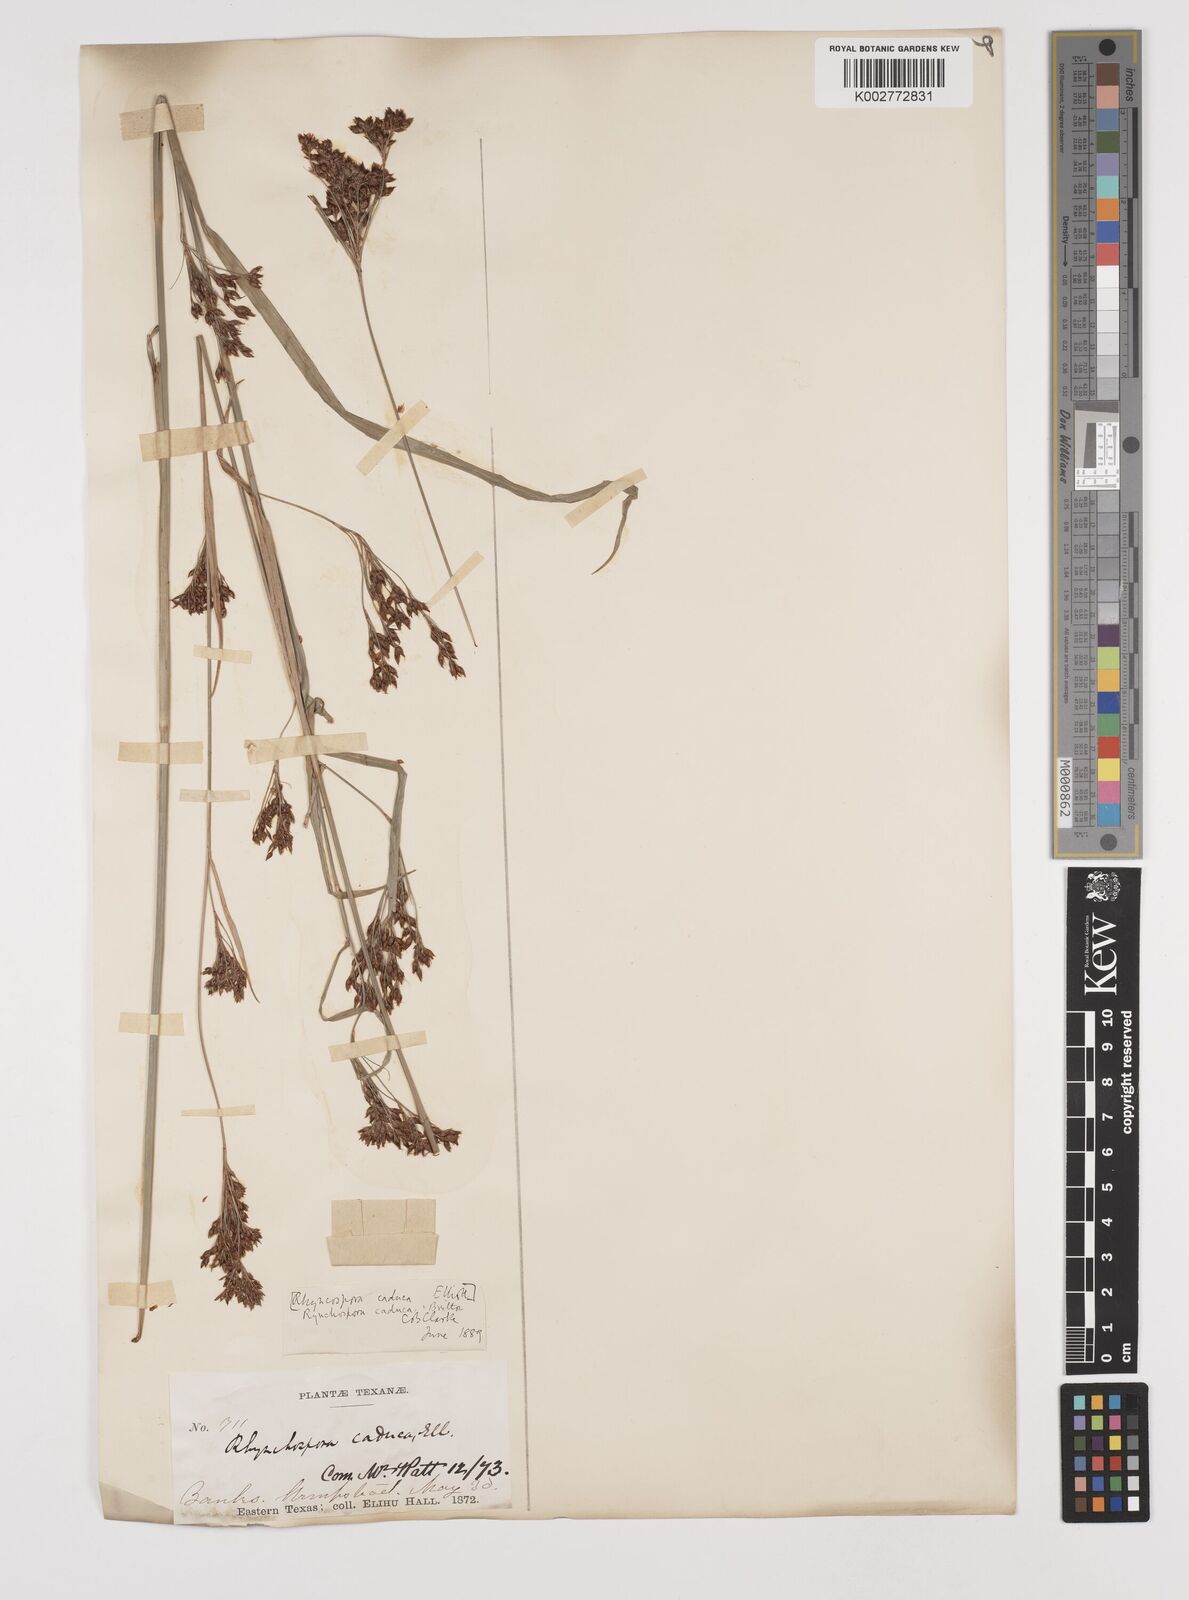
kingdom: Plantae
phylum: Tracheophyta
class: Liliopsida
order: Poales
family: Cyperaceae
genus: Rhynchospora
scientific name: Rhynchospora caduca
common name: Anglestem beaksedge
